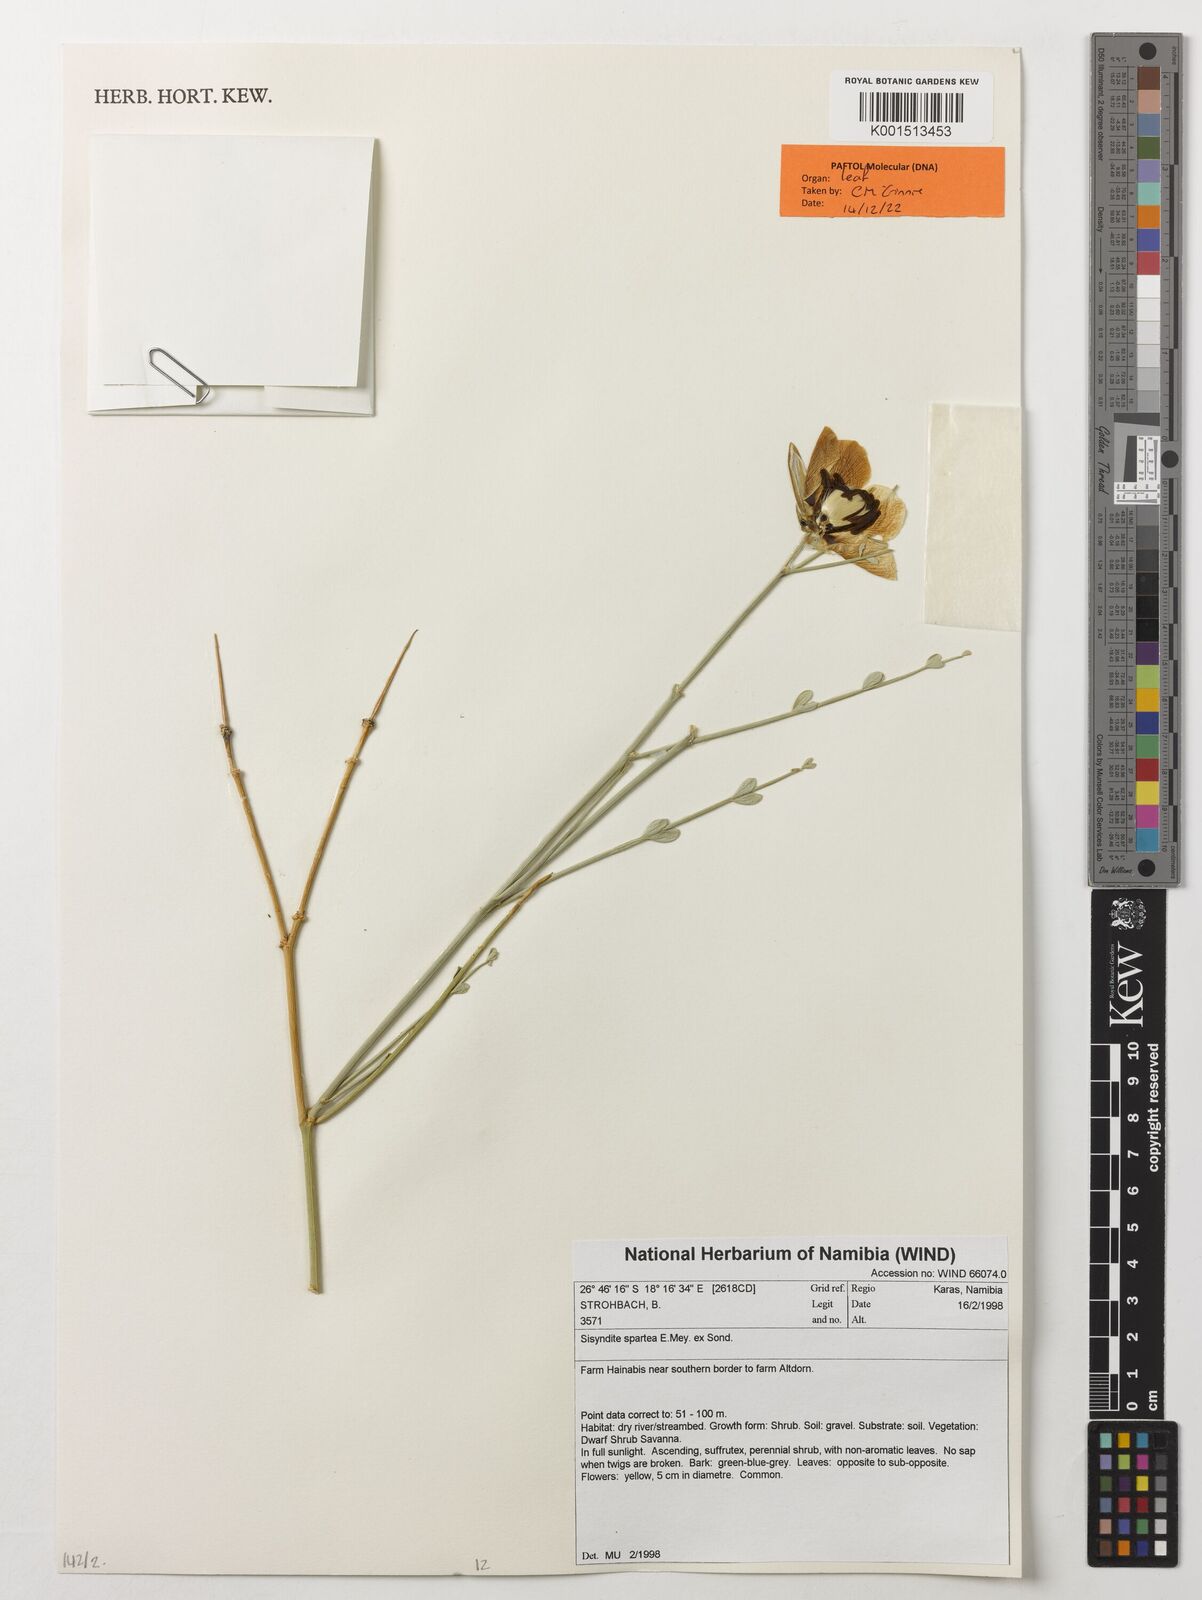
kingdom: Plantae
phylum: Tracheophyta
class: Magnoliopsida
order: Zygophyllales
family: Zygophyllaceae
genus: Sisyndite
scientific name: Sisyndite spartea
